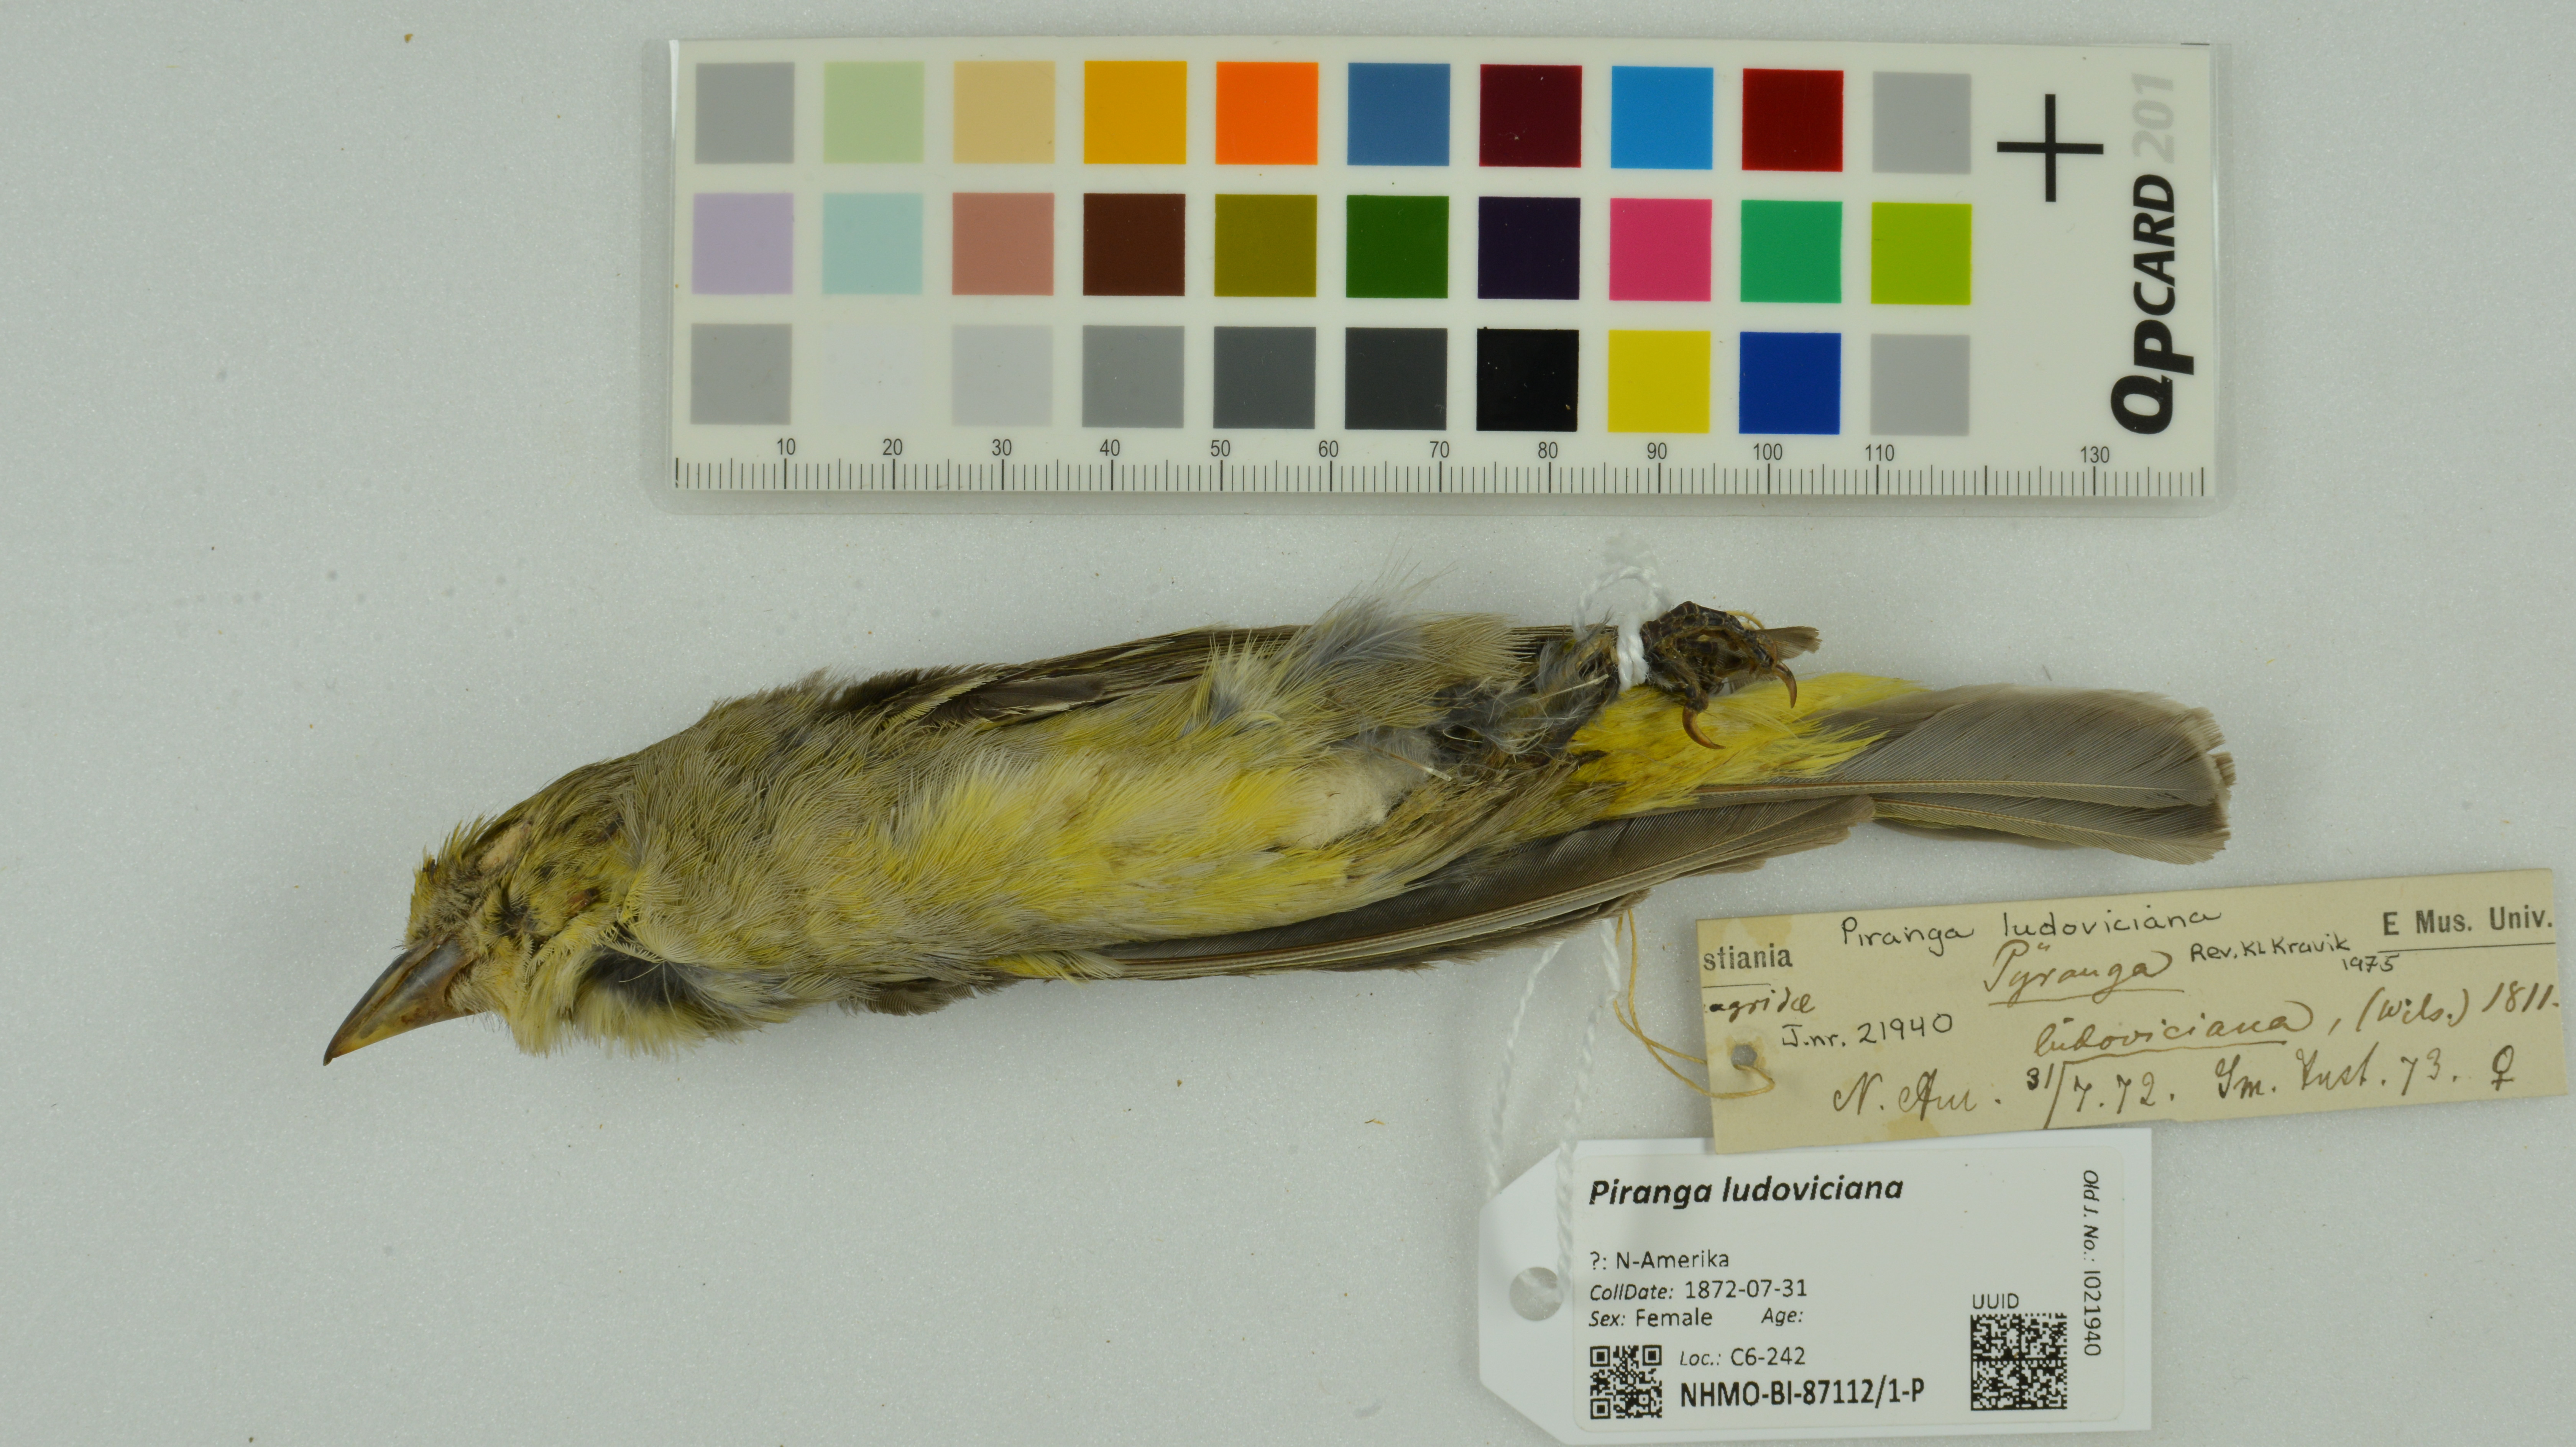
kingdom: Animalia
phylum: Chordata
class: Aves
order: Passeriformes
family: Cardinalidae
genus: Piranga
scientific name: Piranga ludoviciana
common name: Western tanager
